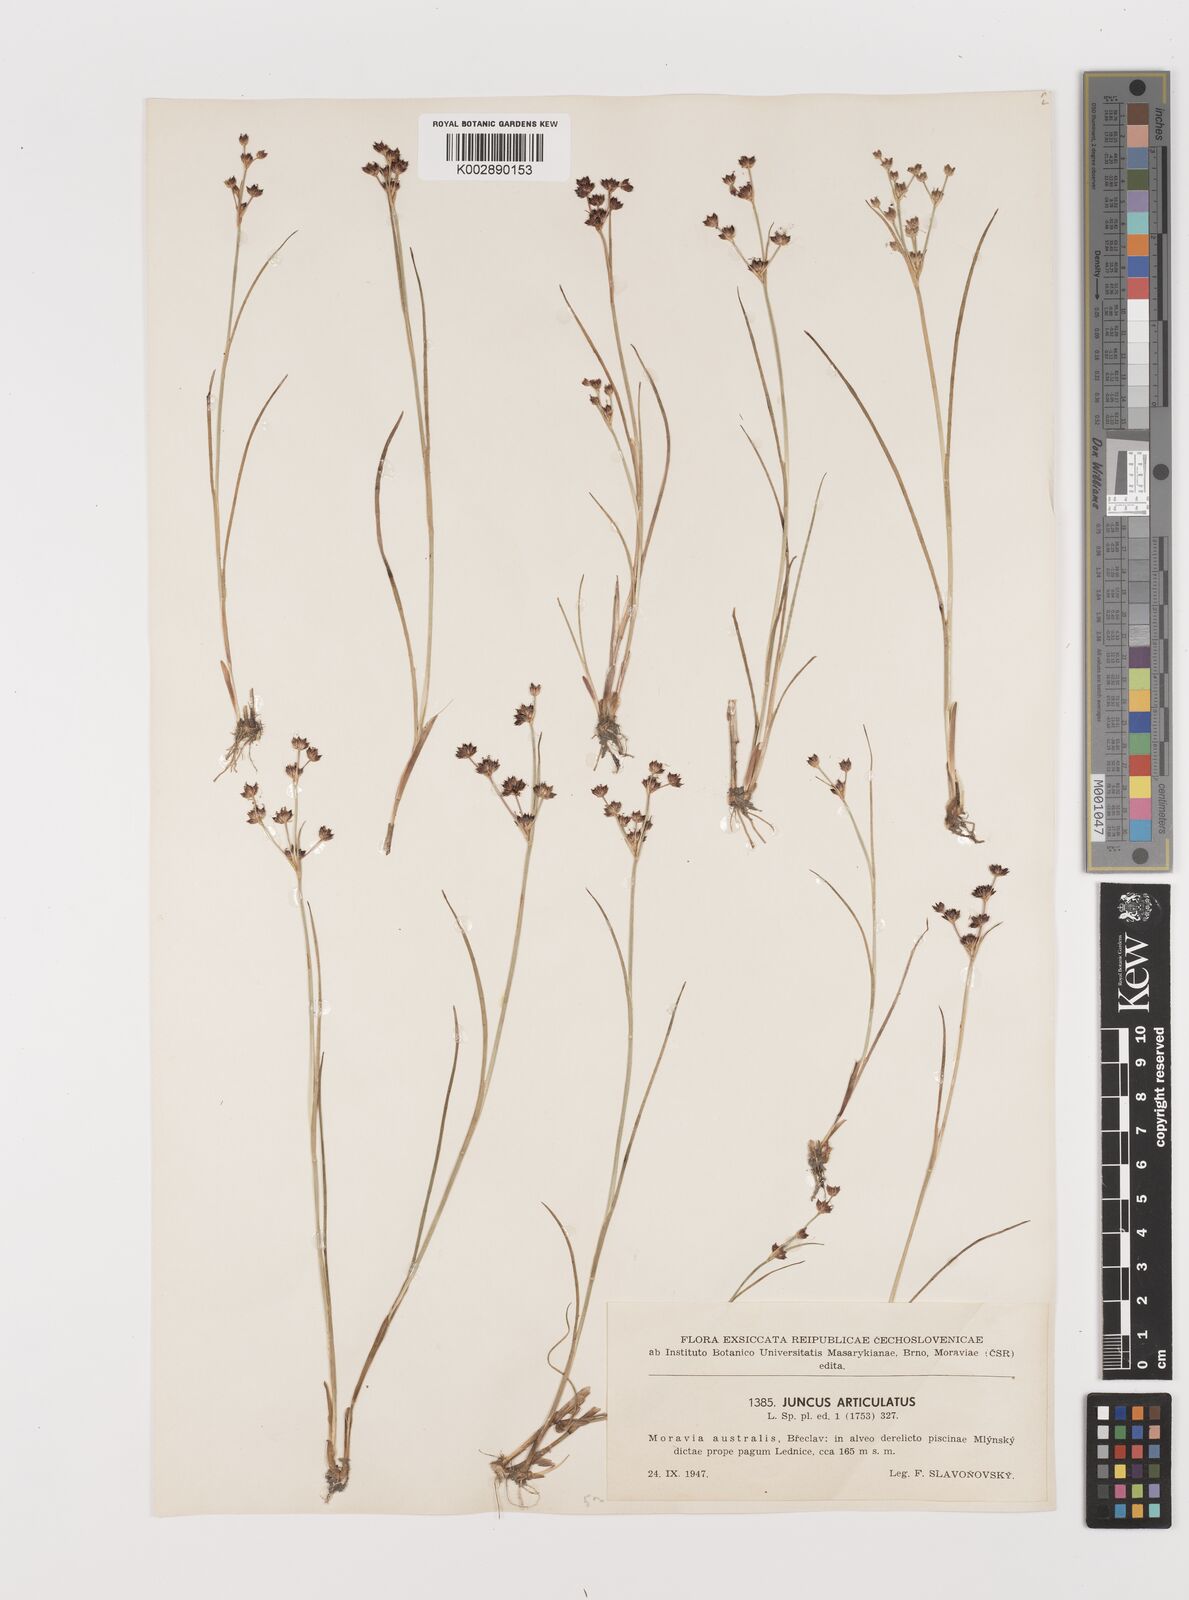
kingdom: Plantae
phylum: Tracheophyta
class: Liliopsida
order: Poales
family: Juncaceae
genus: Juncus
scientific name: Juncus articulatus
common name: Jointed rush
